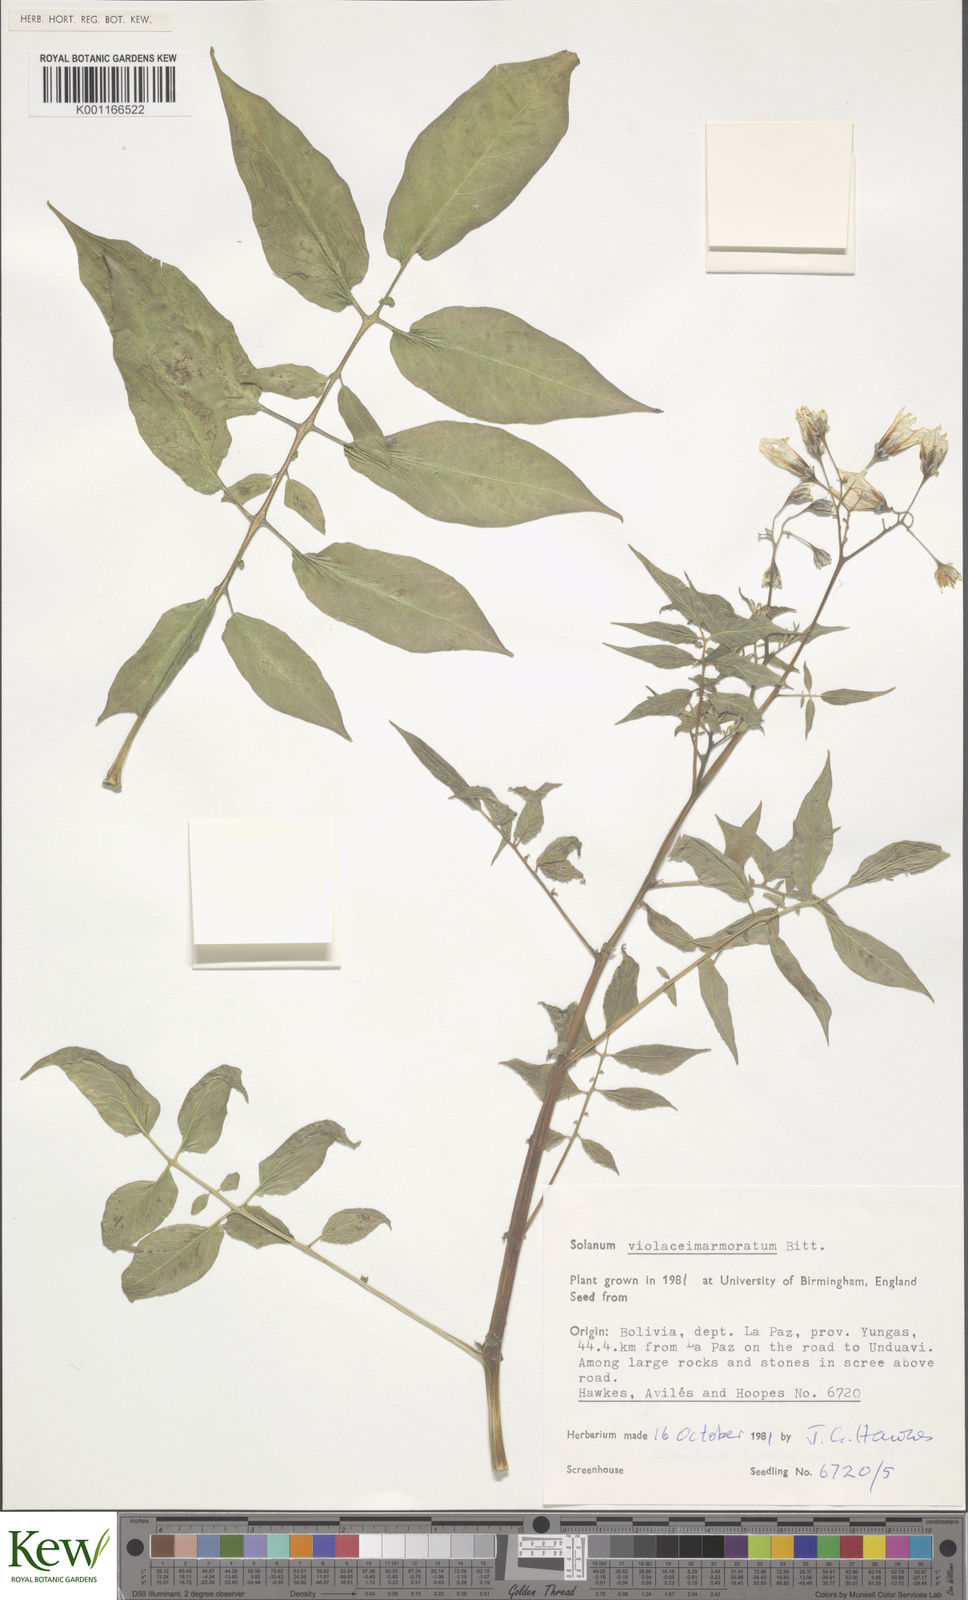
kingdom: Plantae
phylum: Tracheophyta
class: Magnoliopsida
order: Solanales
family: Solanaceae
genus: Solanum
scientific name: Solanum violaceimarmoratum
